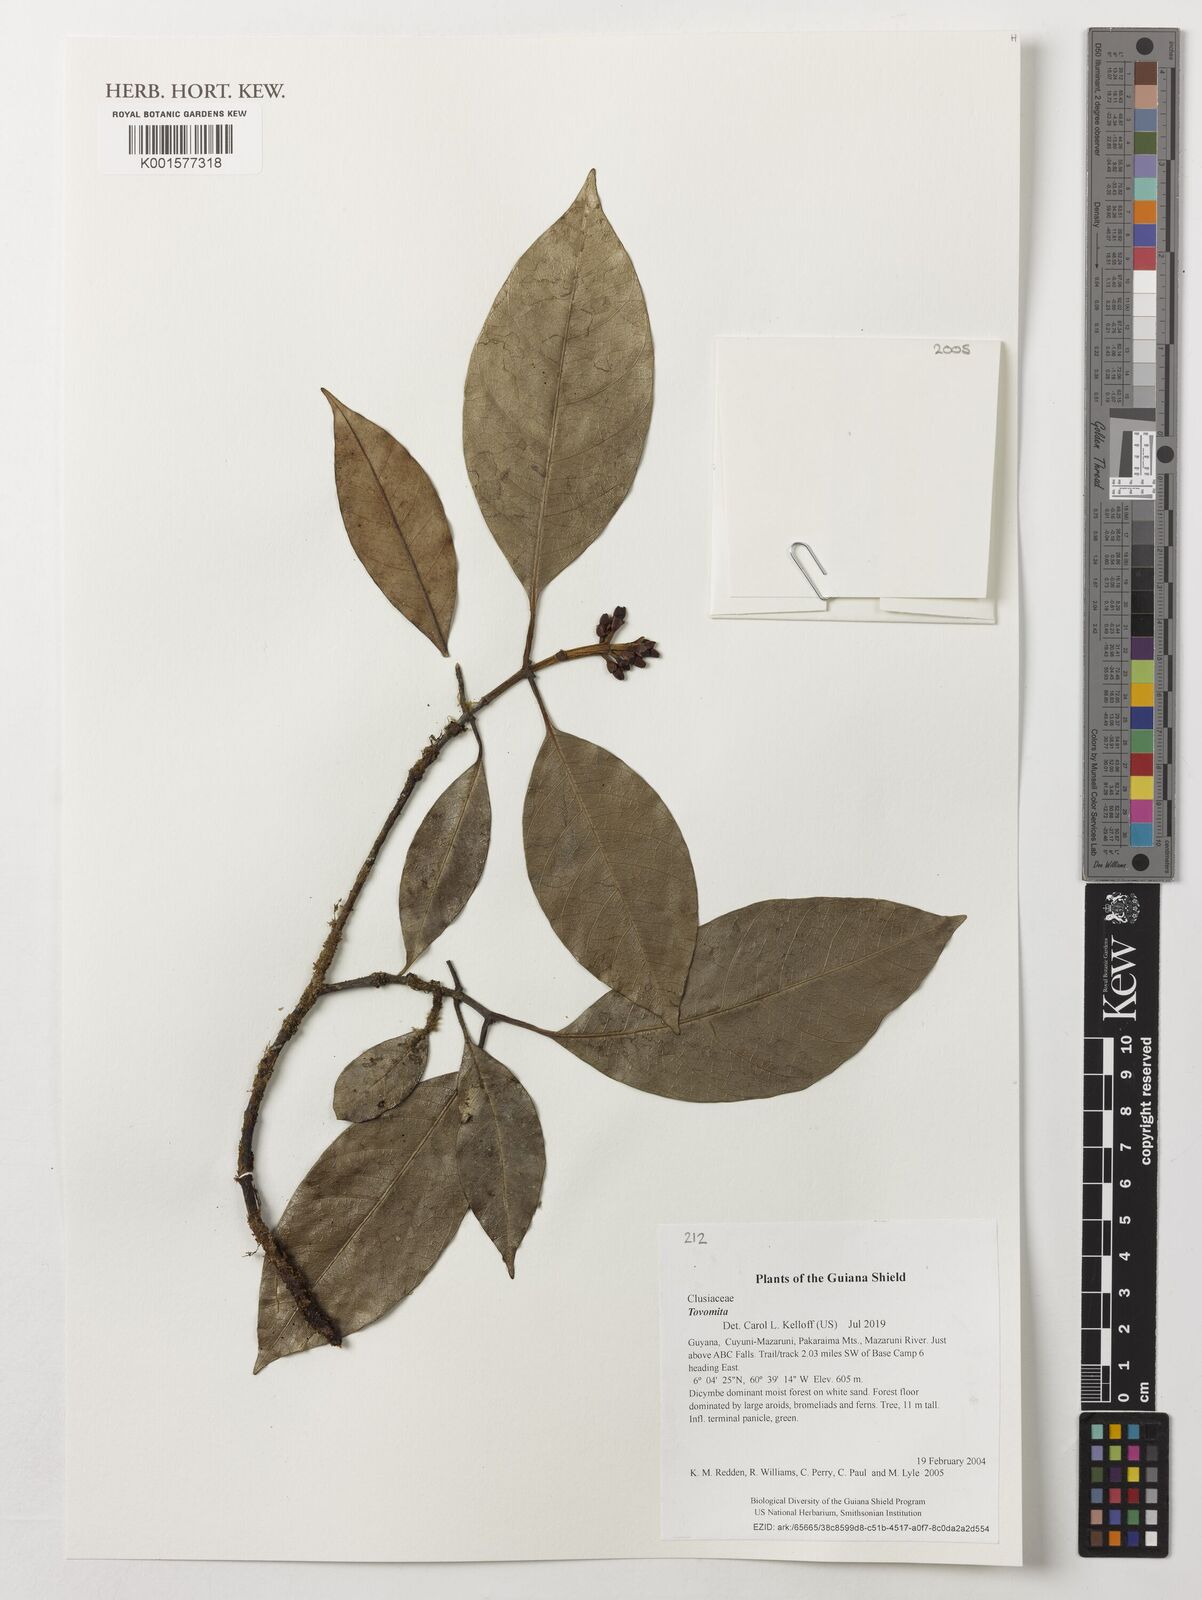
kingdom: Plantae
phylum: Tracheophyta
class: Magnoliopsida
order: Malpighiales
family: Clusiaceae
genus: Tovomita
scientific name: Tovomita
